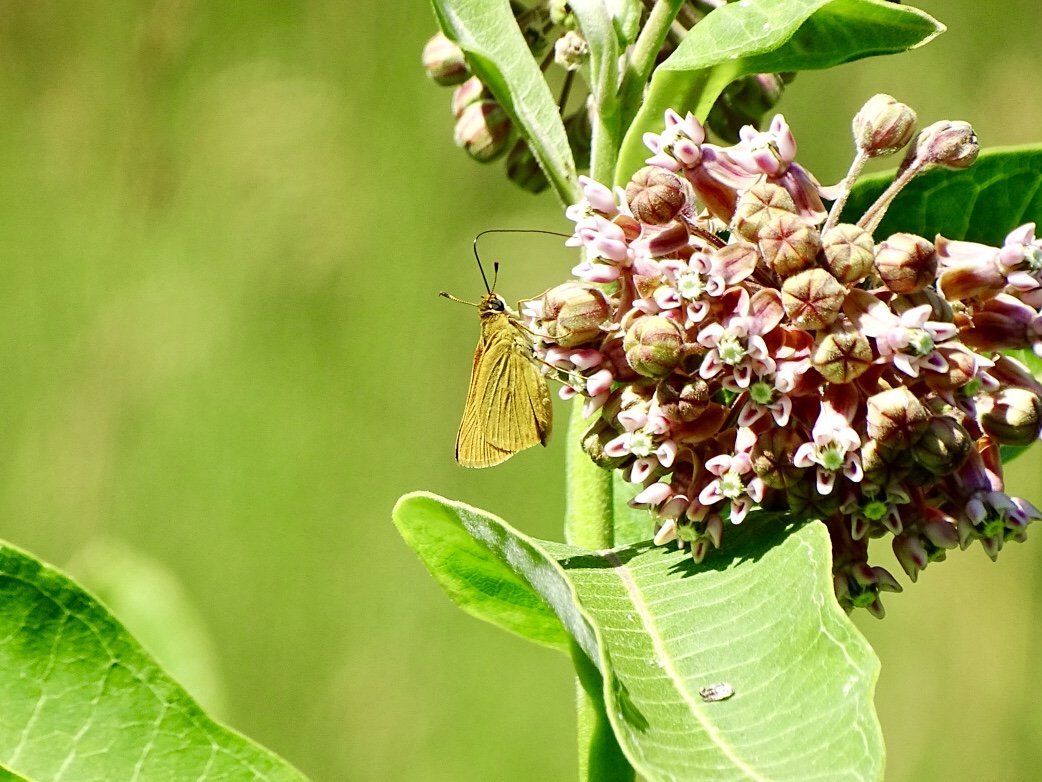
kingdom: Animalia
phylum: Arthropoda
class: Insecta
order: Lepidoptera
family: Hesperiidae
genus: Atrytone
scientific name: Atrytone delaware
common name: Delaware Skipper
